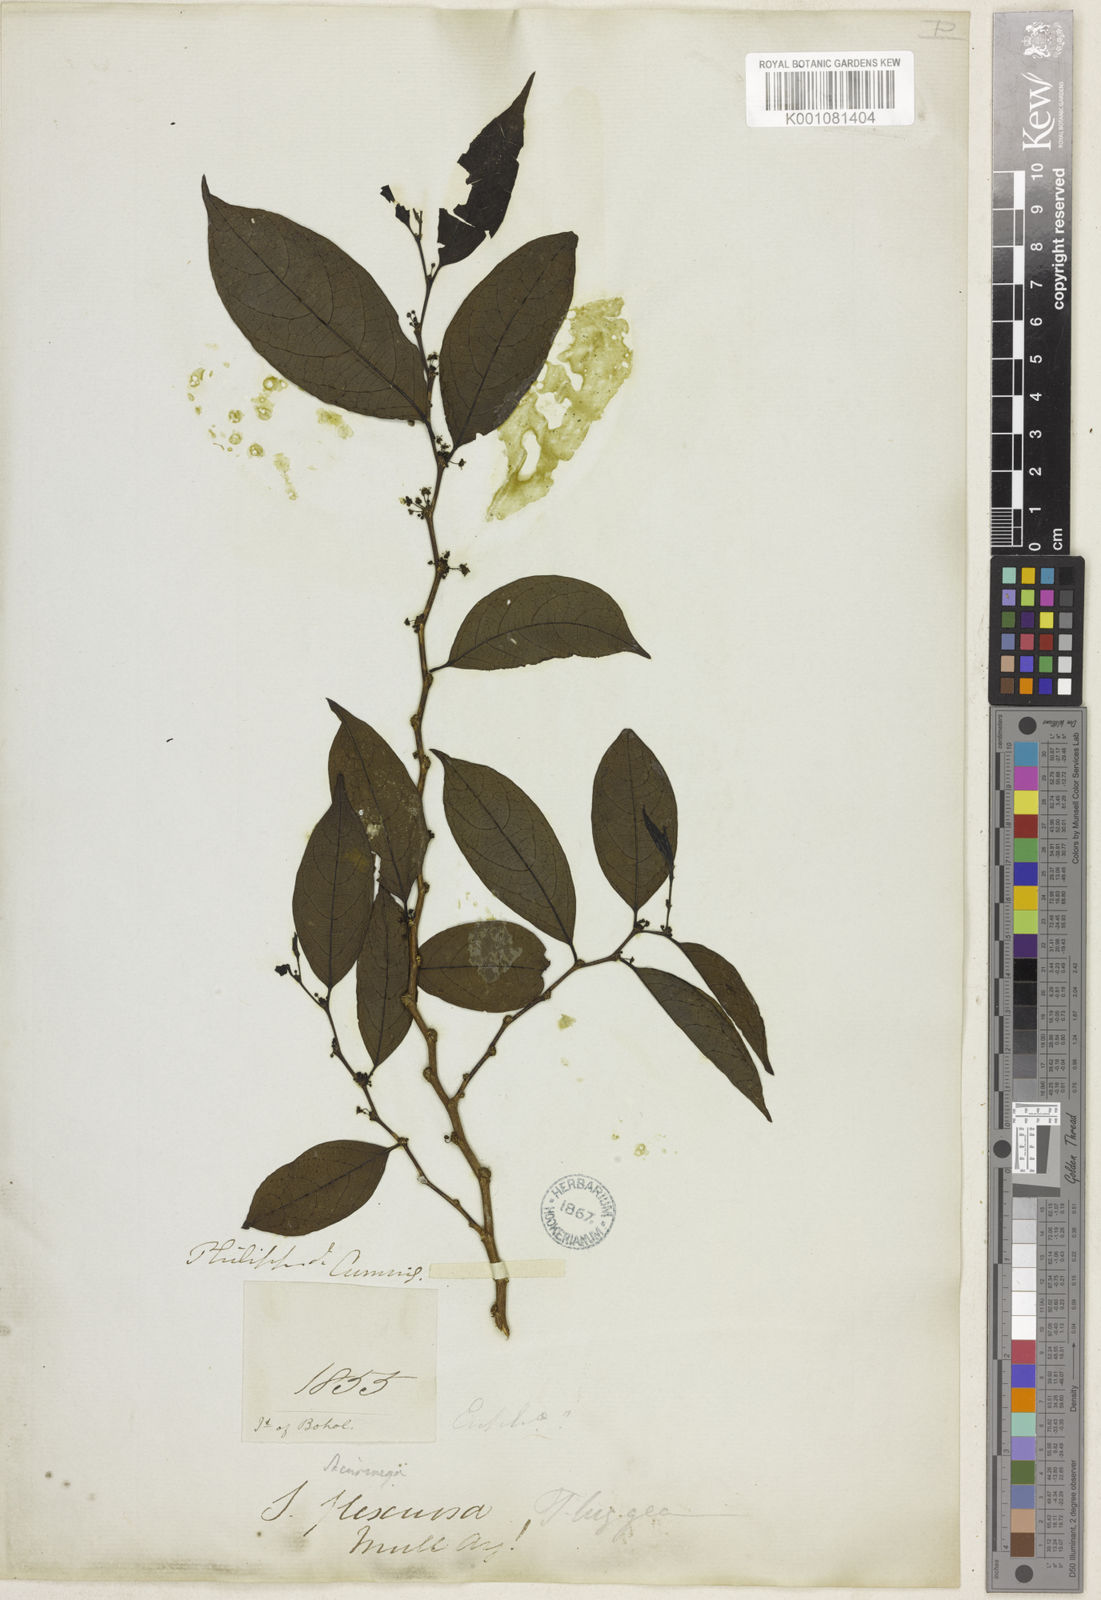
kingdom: Plantae
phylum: Tracheophyta
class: Magnoliopsida
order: Malpighiales
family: Phyllanthaceae
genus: Flueggea
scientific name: Flueggea
